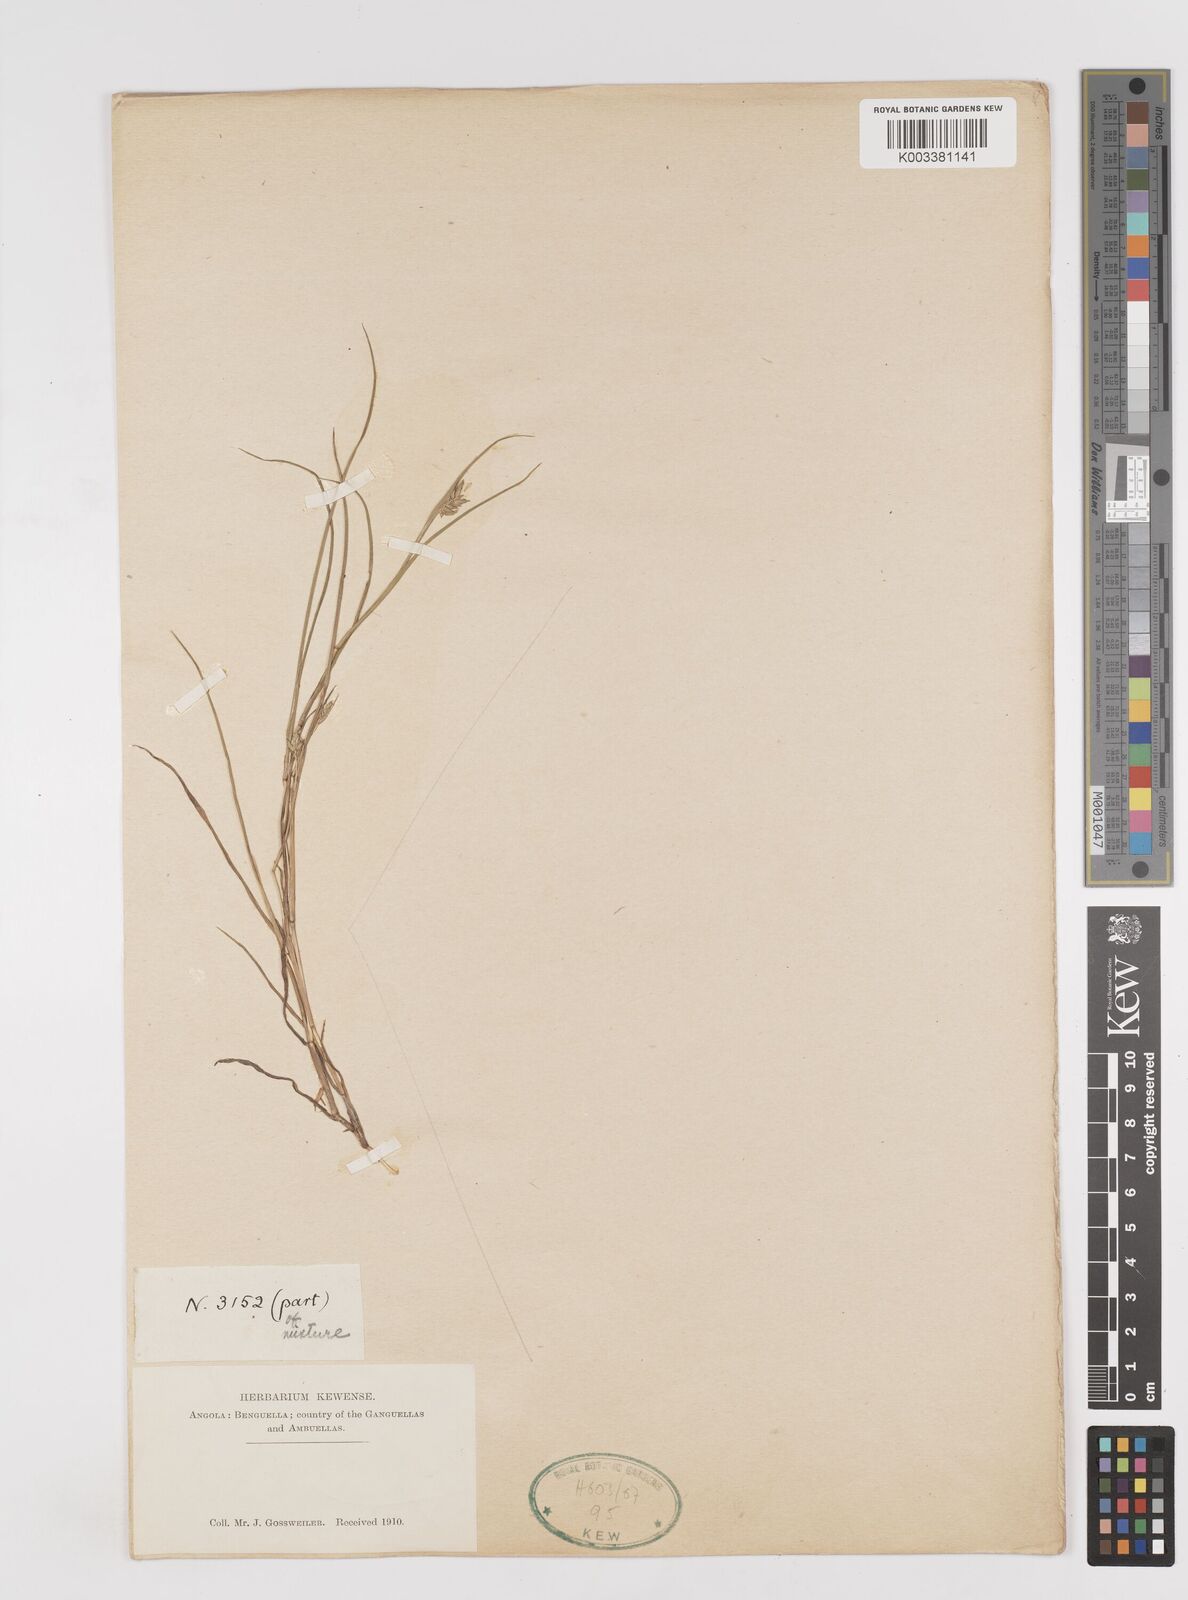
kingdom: Plantae
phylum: Tracheophyta
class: Liliopsida
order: Poales
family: Poaceae
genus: Sacciolepis
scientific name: Sacciolepis seslerioides
